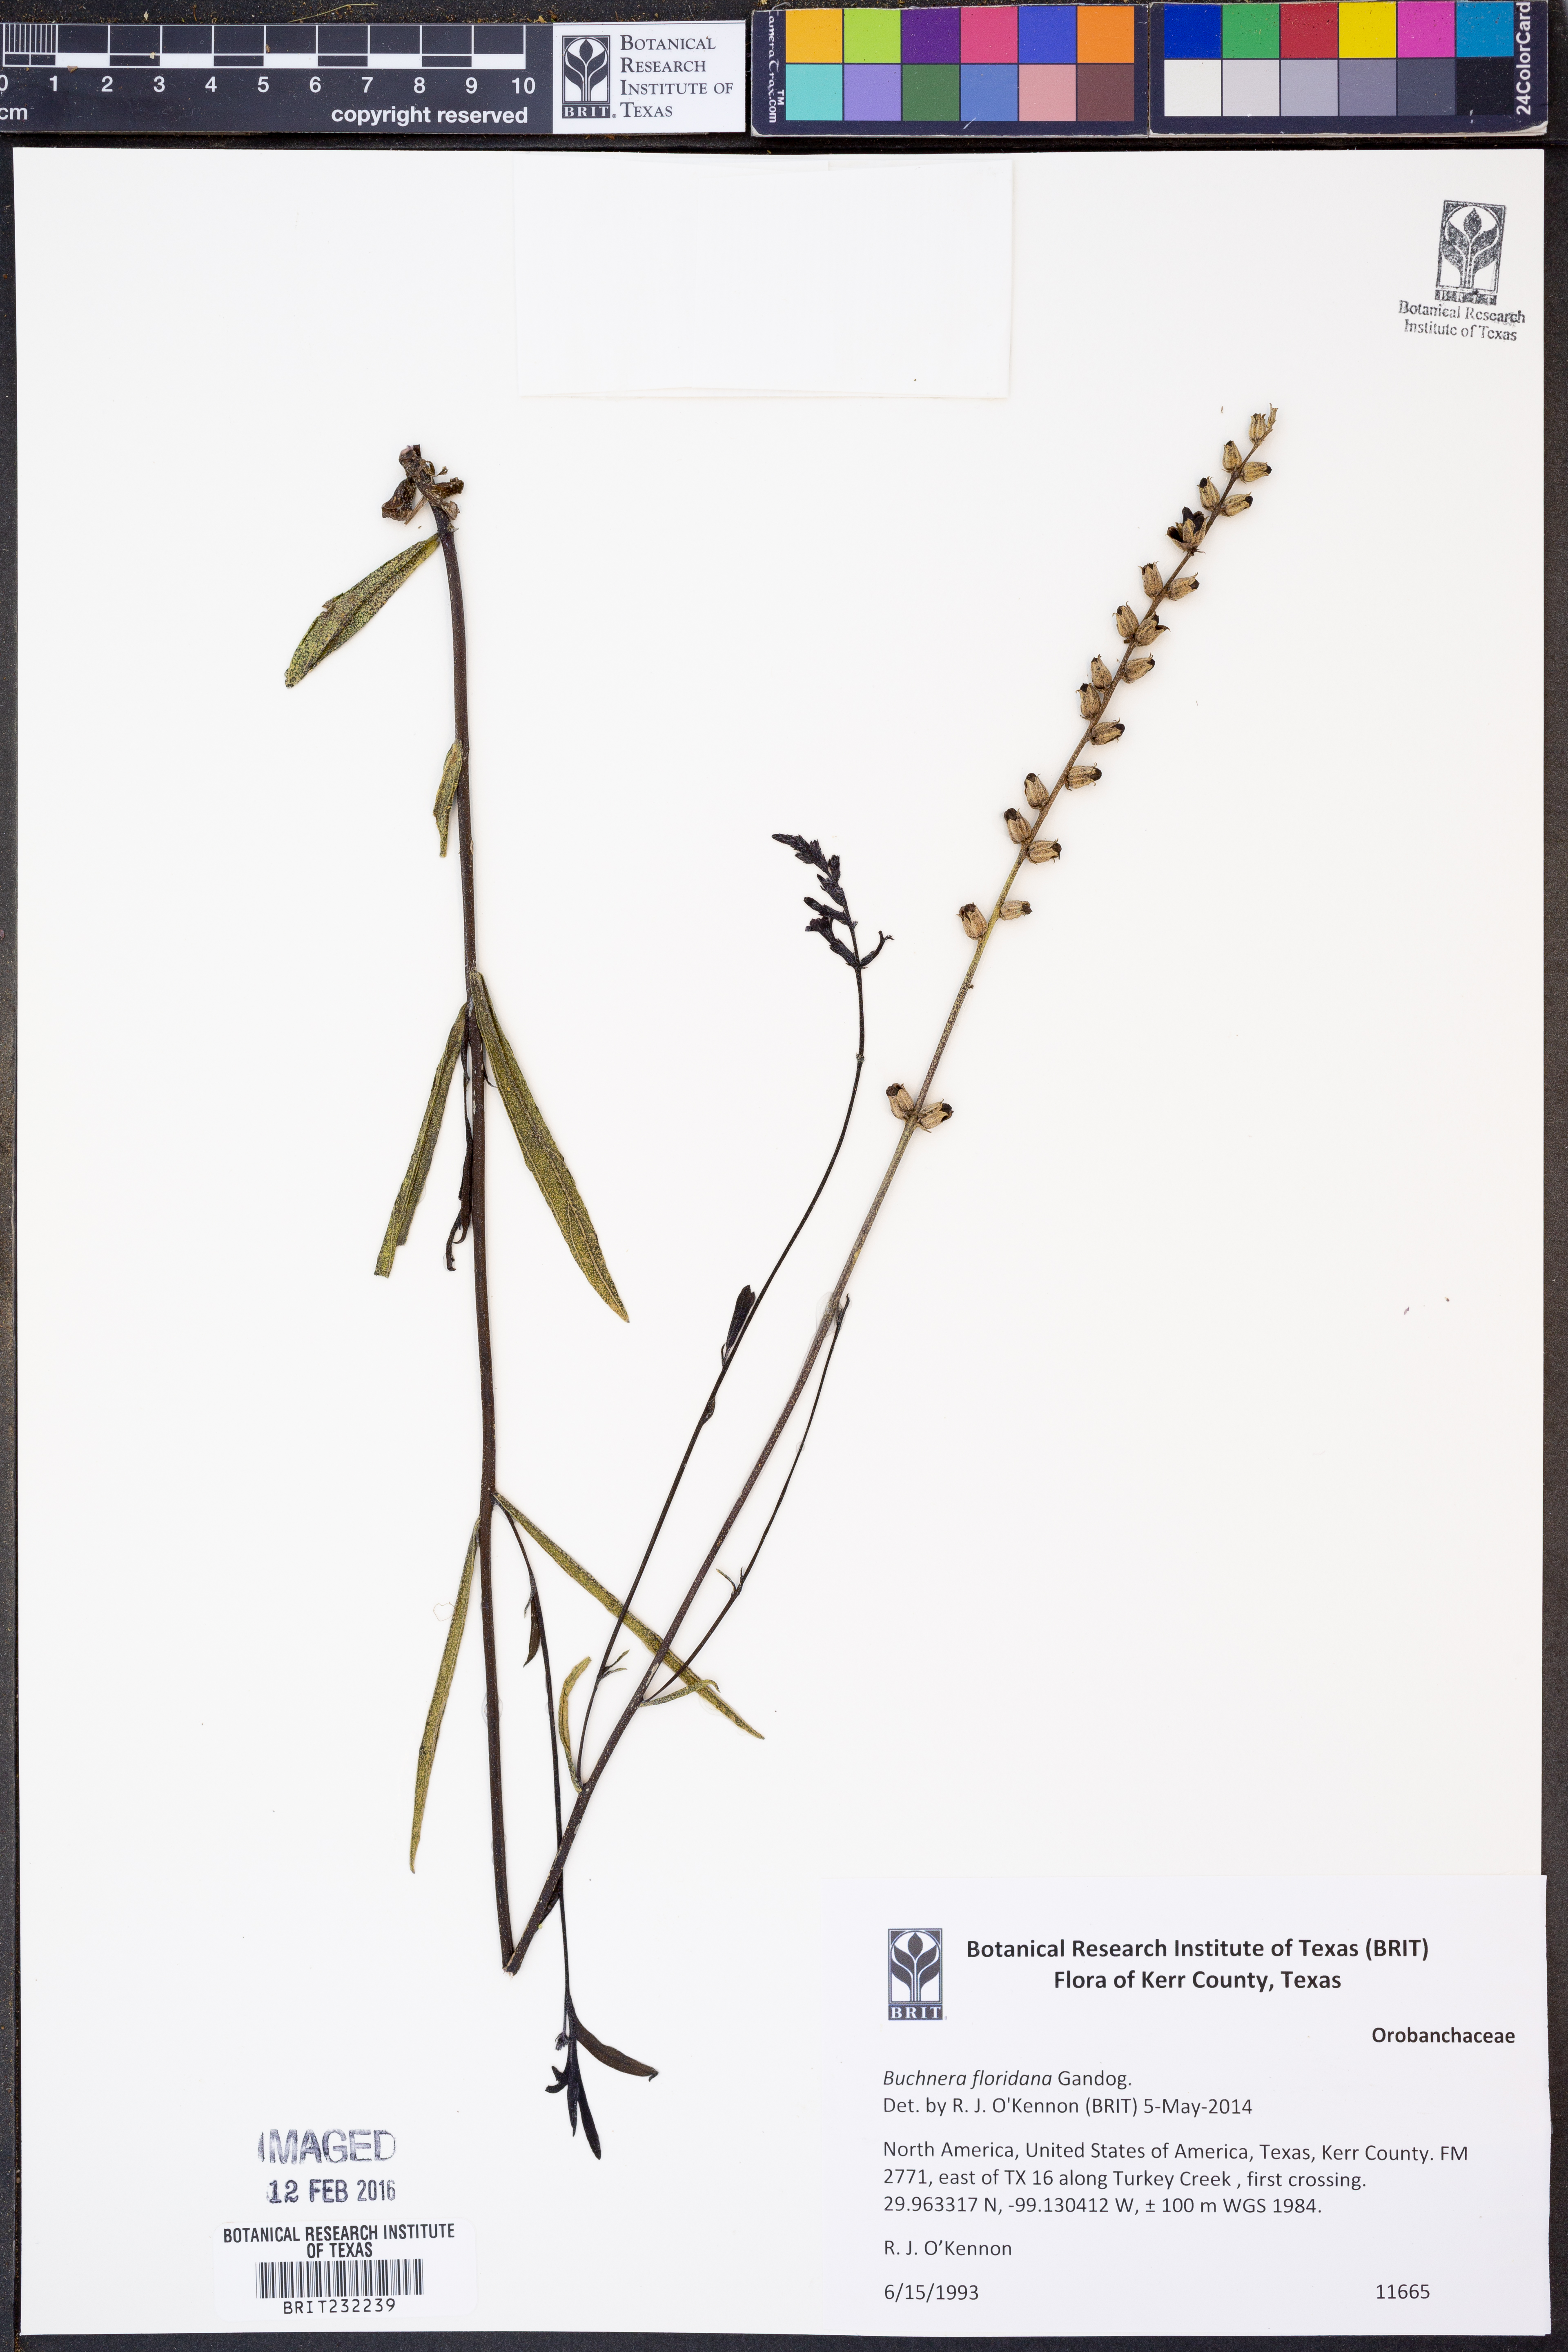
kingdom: Plantae
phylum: Tracheophyta
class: Magnoliopsida
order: Lamiales
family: Orobanchaceae
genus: Buchnera
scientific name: Buchnera floridana
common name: Florida bluehearts
